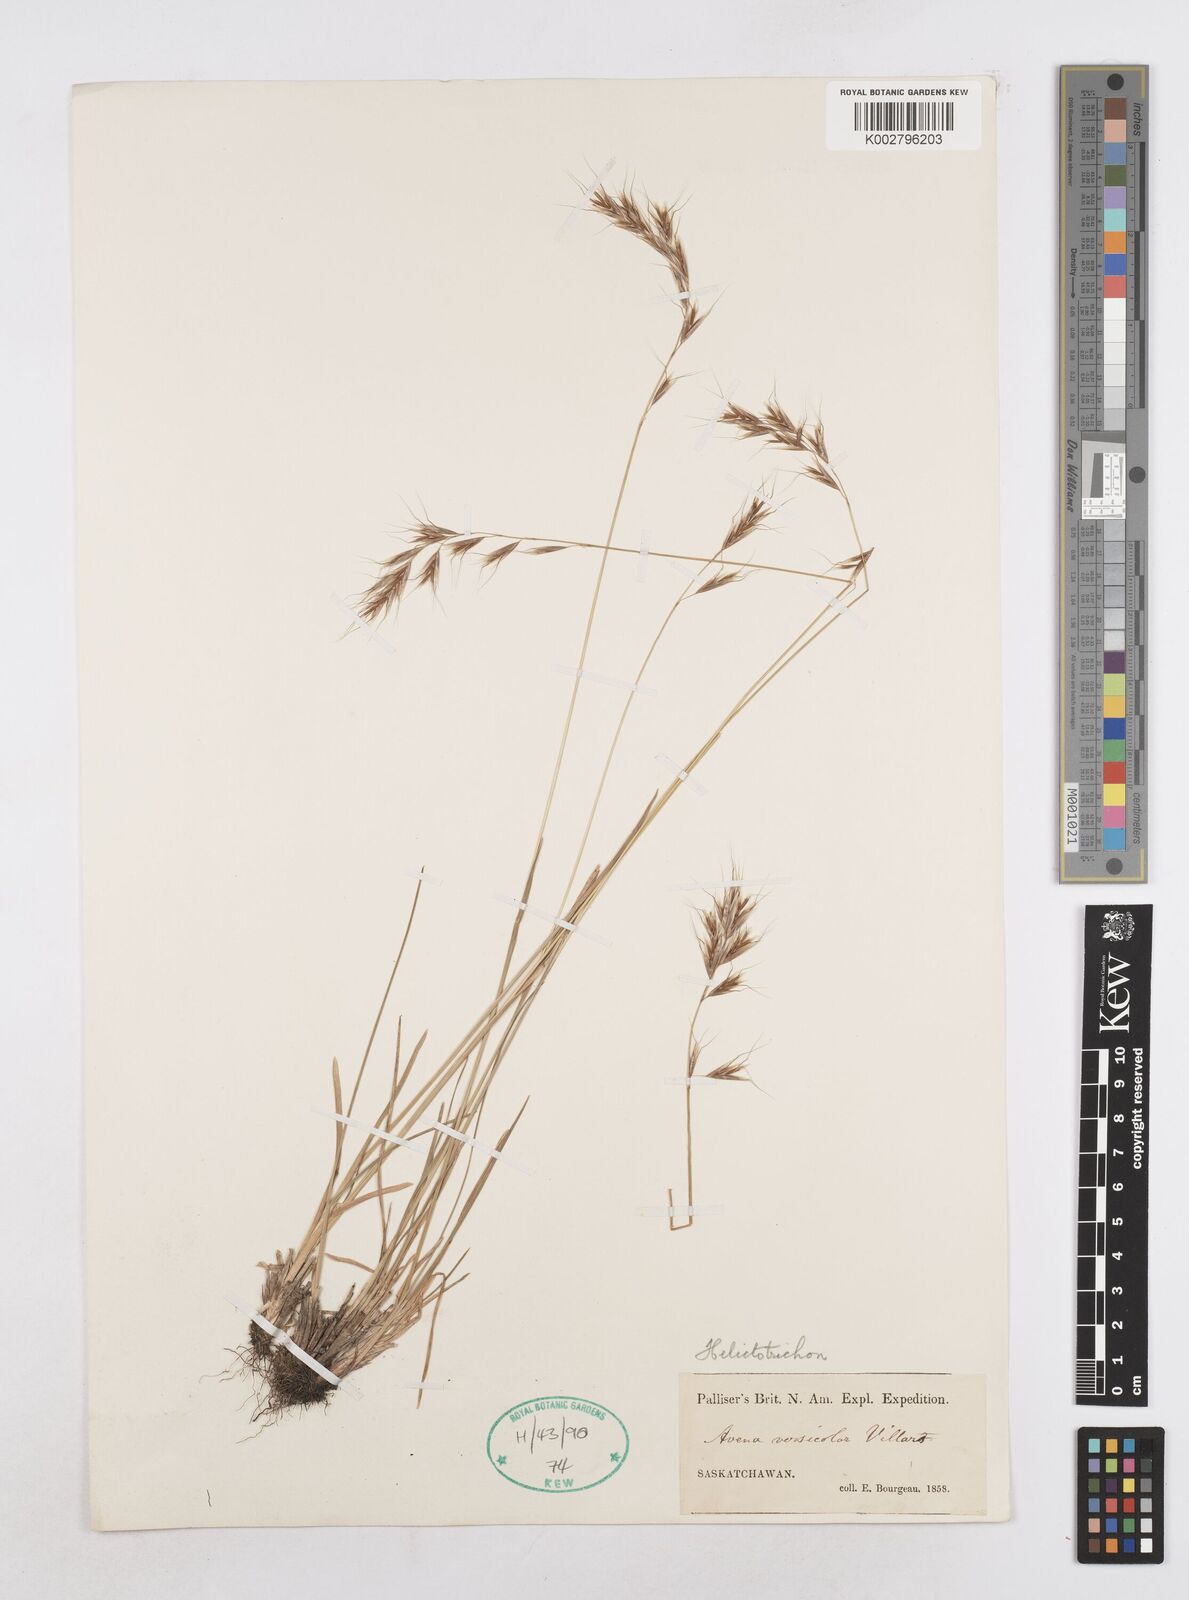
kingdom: Plantae
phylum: Tracheophyta
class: Liliopsida
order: Poales
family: Poaceae
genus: Helictotrichon
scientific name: Helictotrichon
